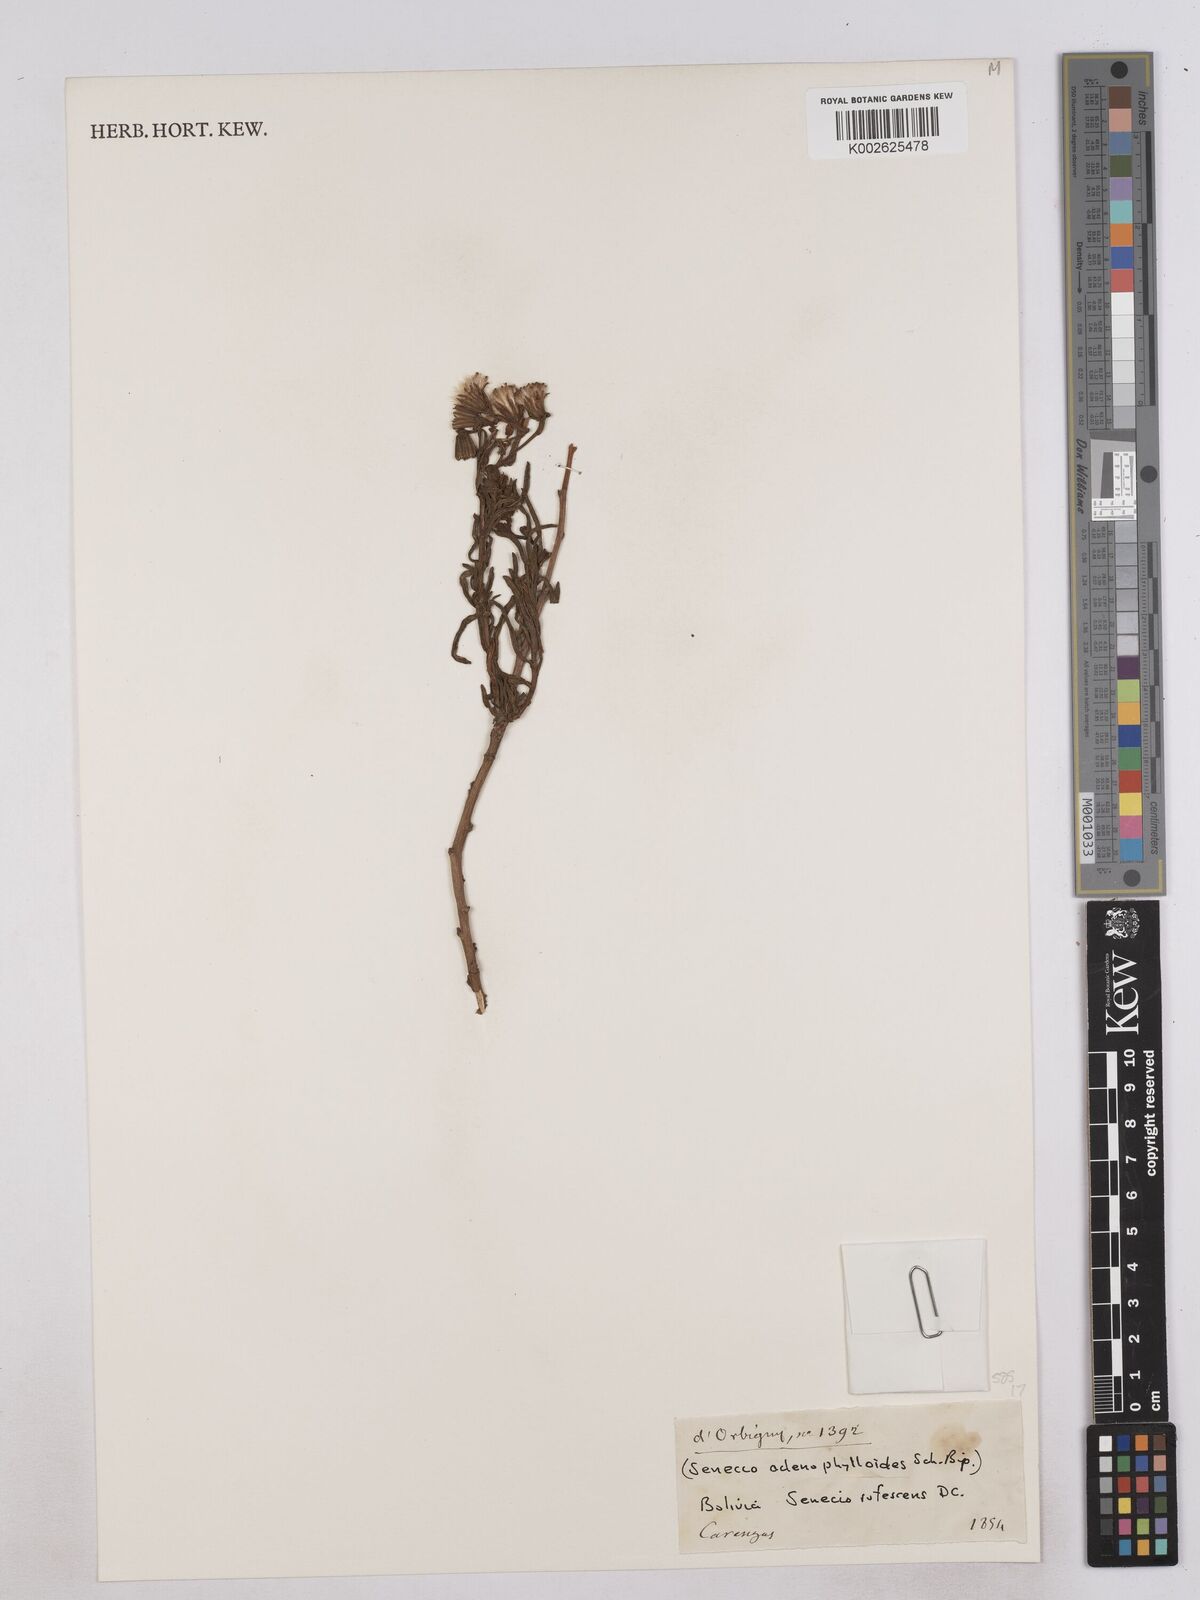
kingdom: Plantae
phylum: Tracheophyta
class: Magnoliopsida
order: Asterales
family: Asteraceae
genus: Senecio
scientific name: Senecio rufescens
